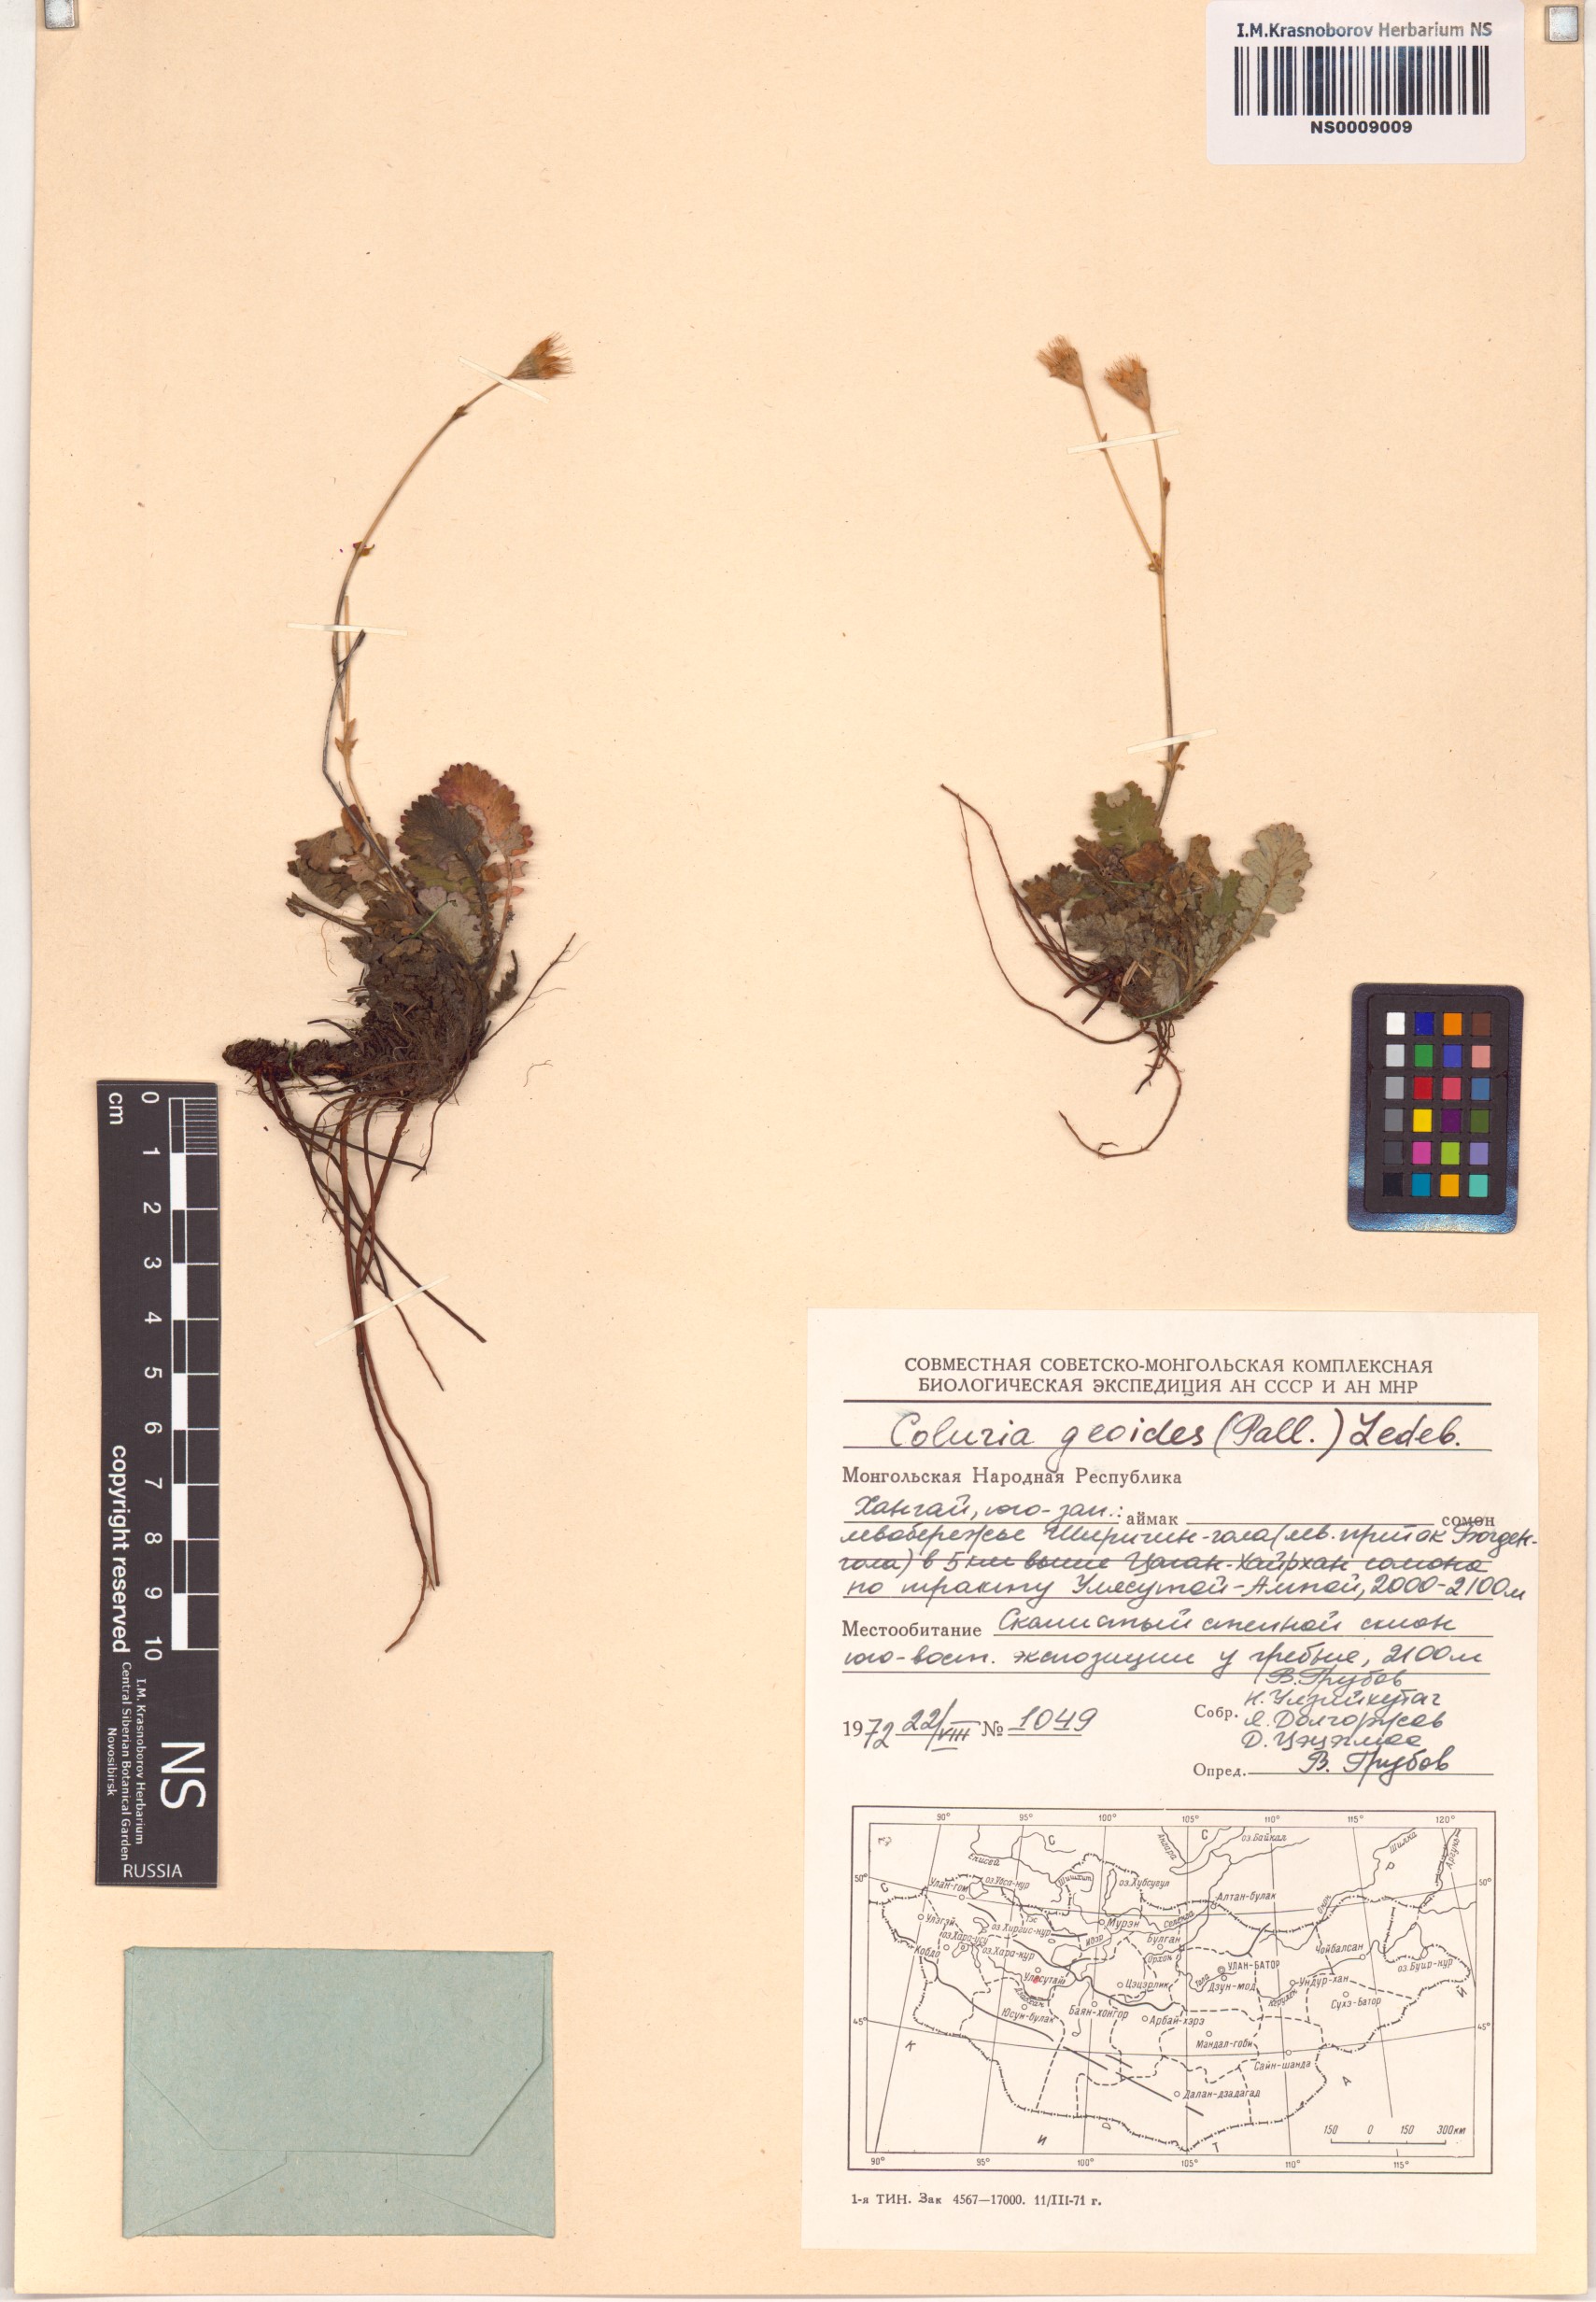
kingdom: Plantae
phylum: Tracheophyta
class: Magnoliopsida
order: Rosales
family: Rosaceae
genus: Geum
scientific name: Geum geoides
